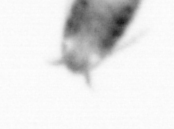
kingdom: Animalia
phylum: Arthropoda
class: Copepoda
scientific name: Copepoda
